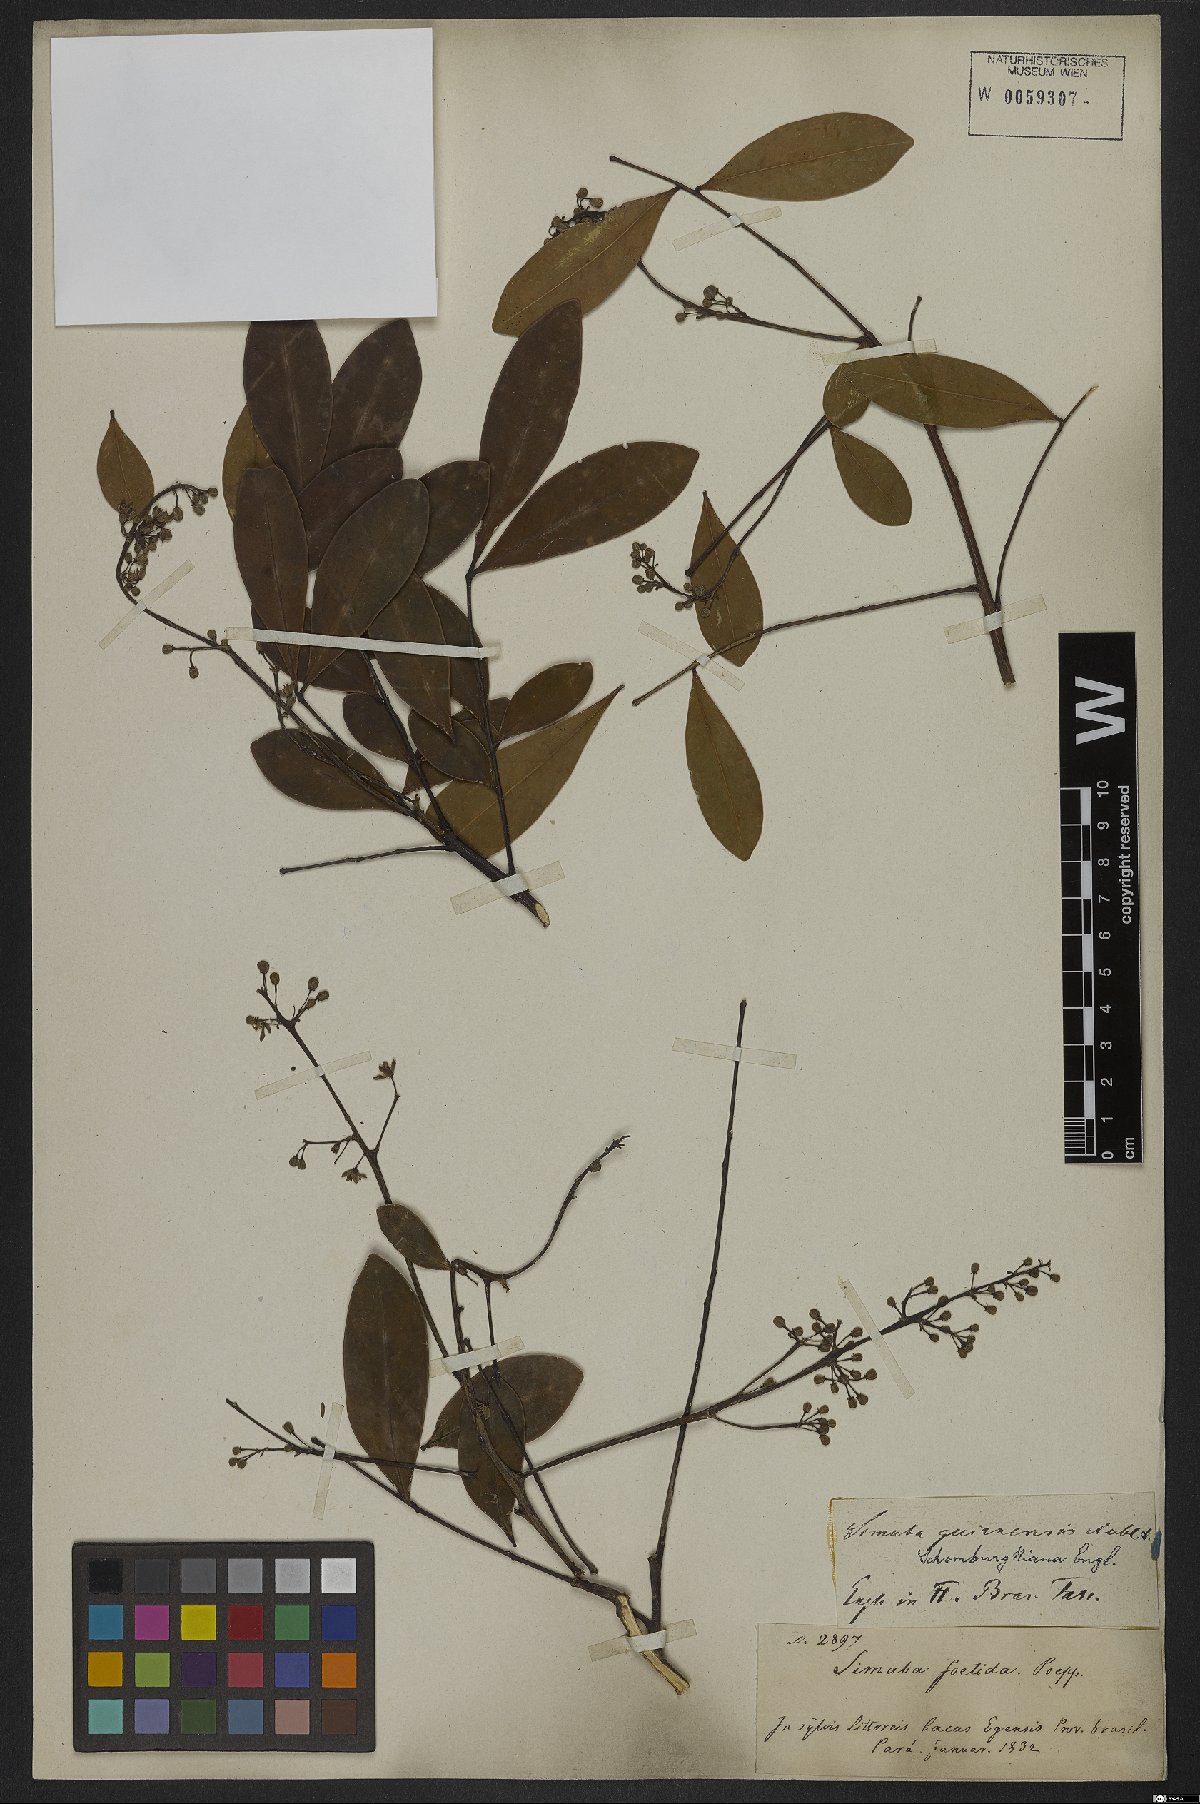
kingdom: Plantae
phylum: Tracheophyta
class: Magnoliopsida
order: Sapindales
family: Simaroubaceae
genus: Simaba
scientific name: Simaba guianensis
